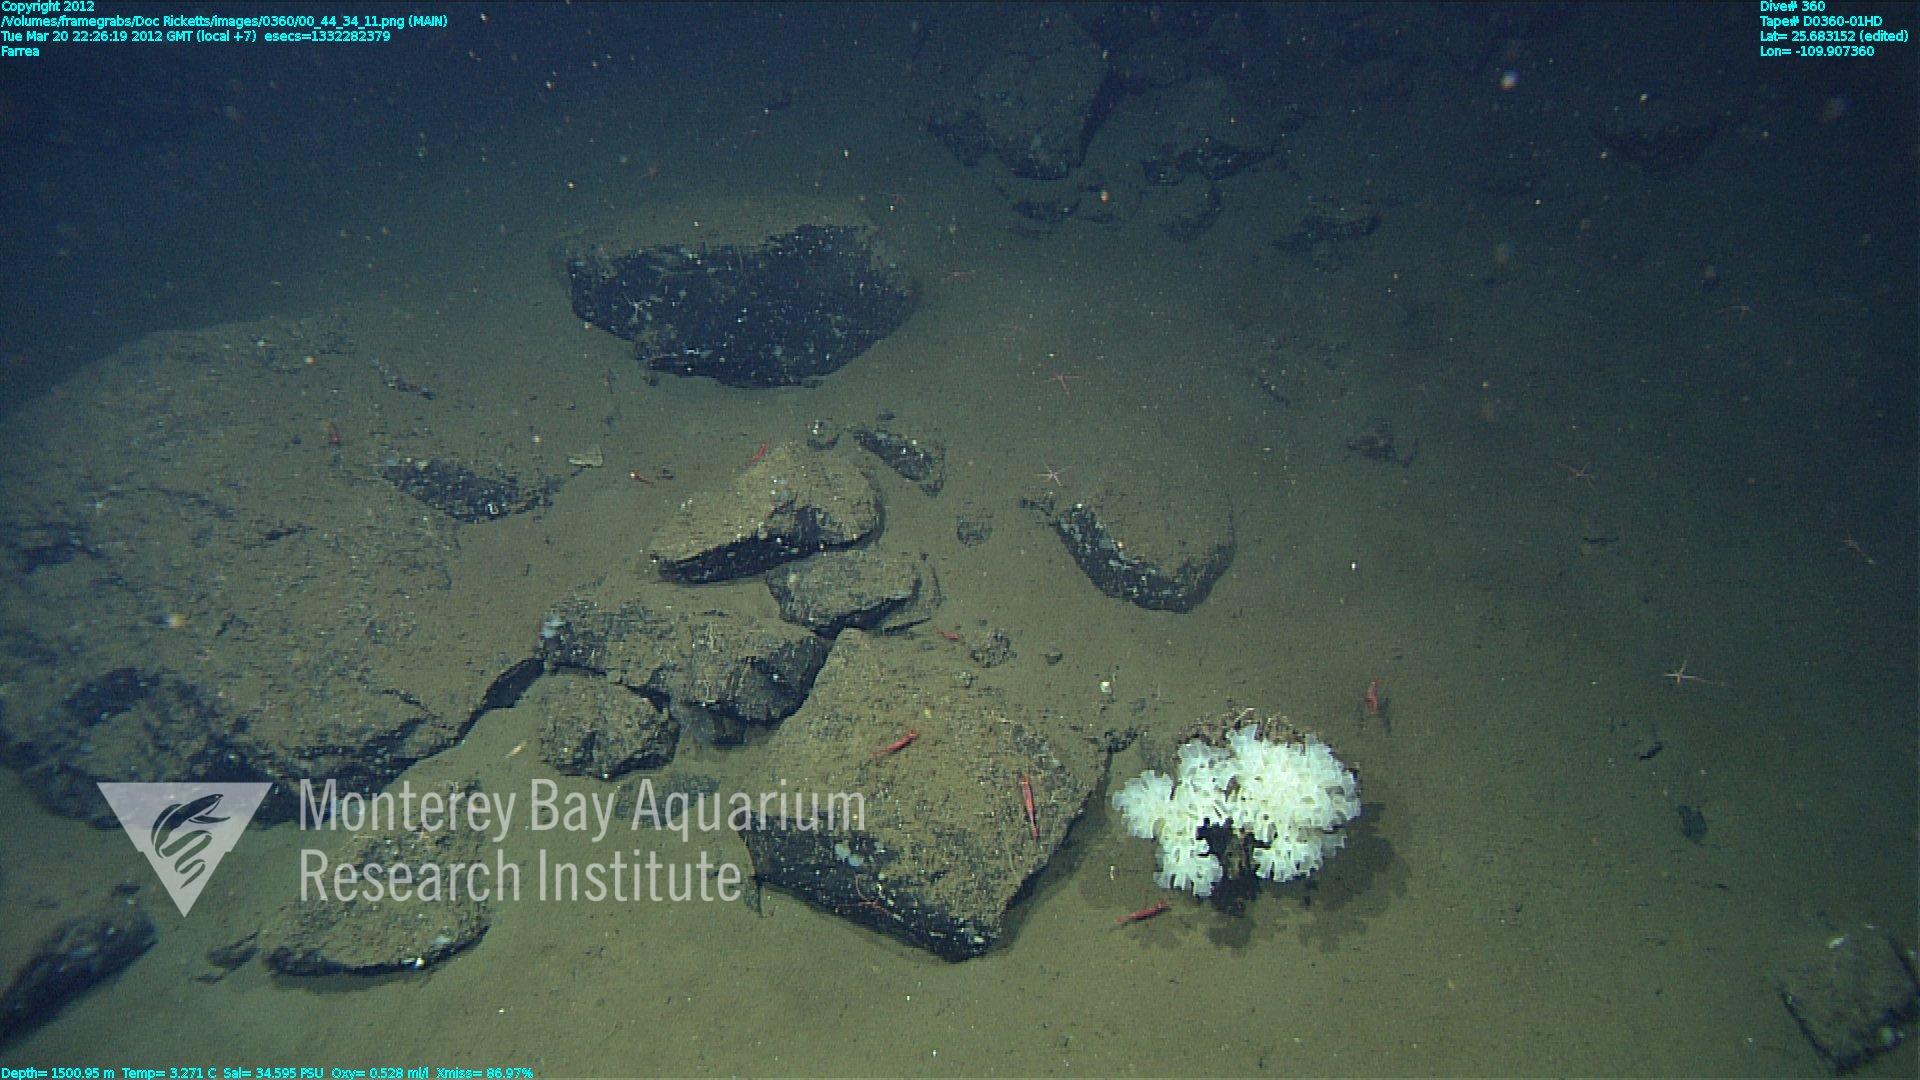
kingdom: Animalia
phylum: Porifera
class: Hexactinellida
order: Sceptrulophora
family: Farreidae
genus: Farrea
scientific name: Farrea
